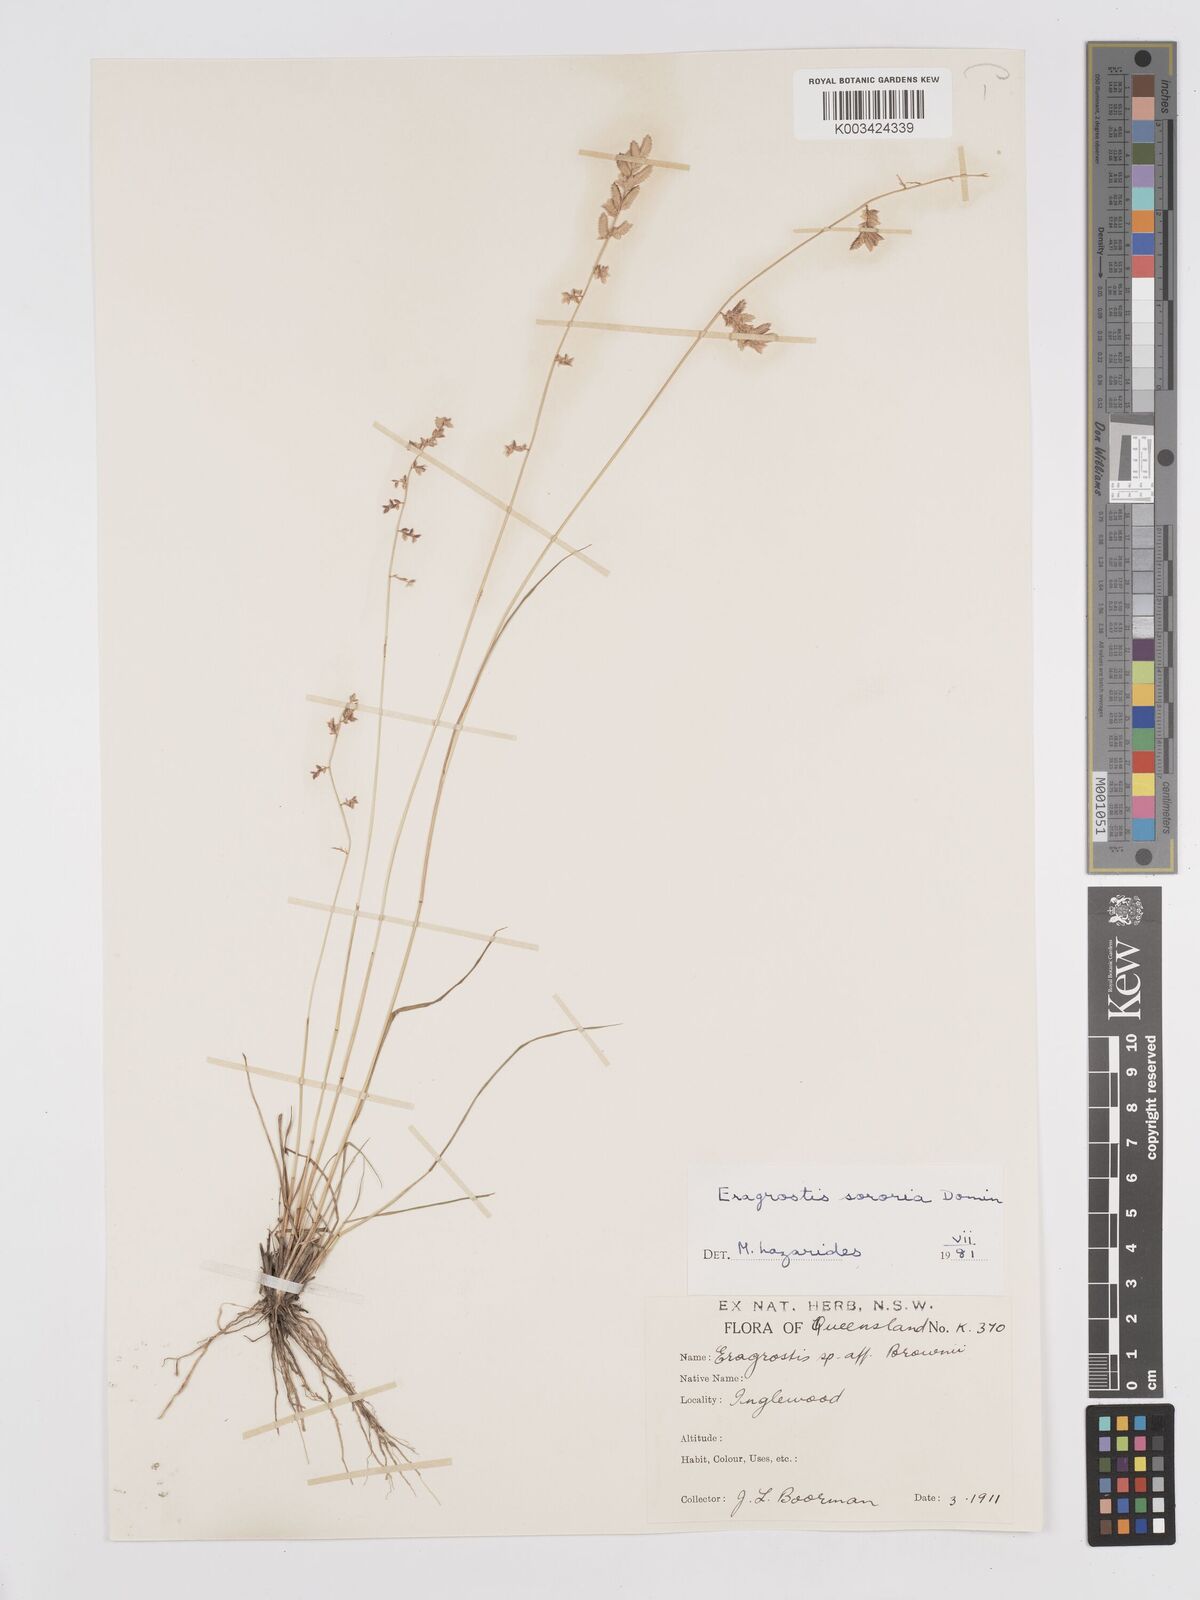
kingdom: Plantae
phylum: Tracheophyta
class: Liliopsida
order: Poales
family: Poaceae
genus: Eragrostis
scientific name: Eragrostis sororia
